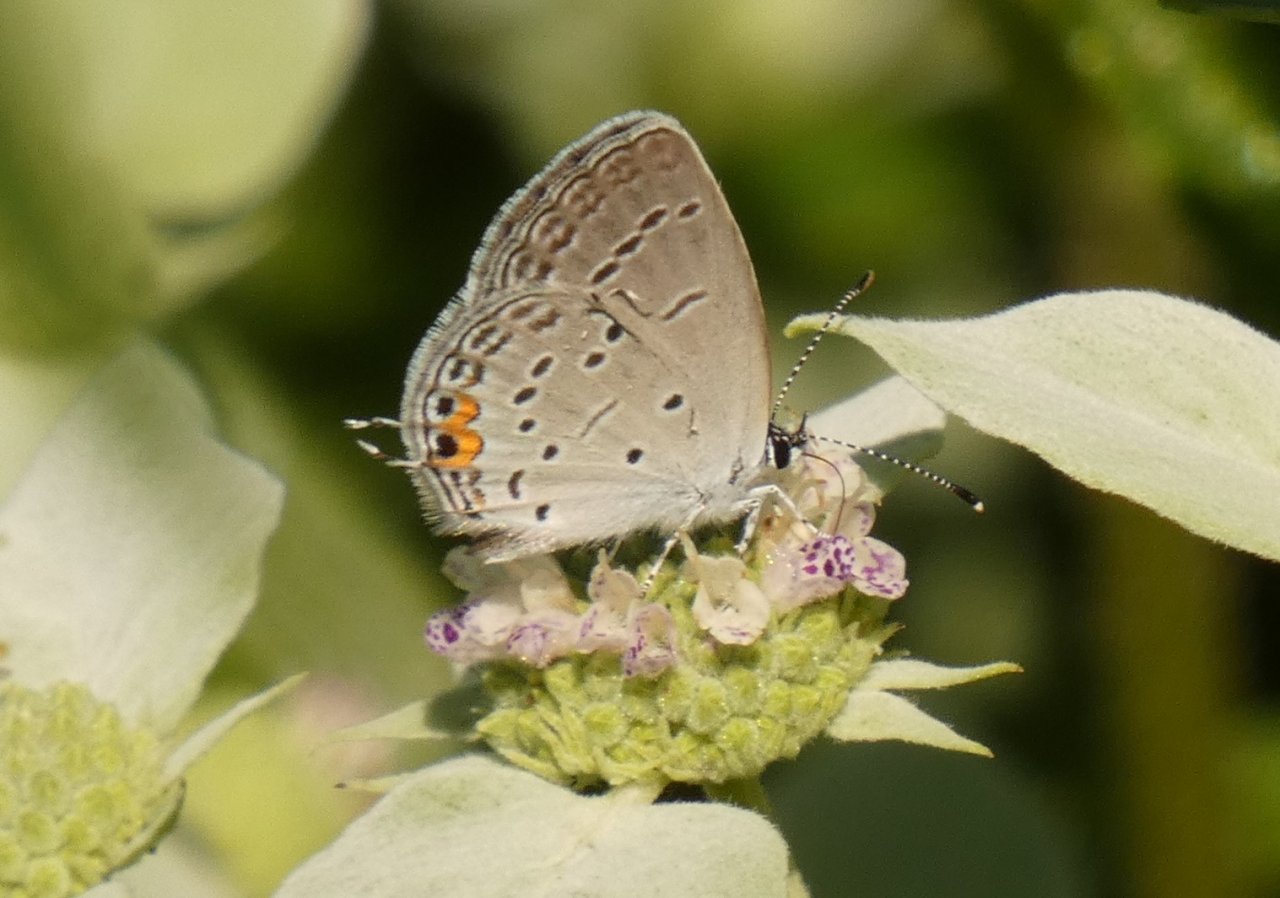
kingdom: Animalia
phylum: Arthropoda
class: Insecta
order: Lepidoptera
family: Lycaenidae
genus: Elkalyce
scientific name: Elkalyce comyntas
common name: Eastern Tailed-Blue
